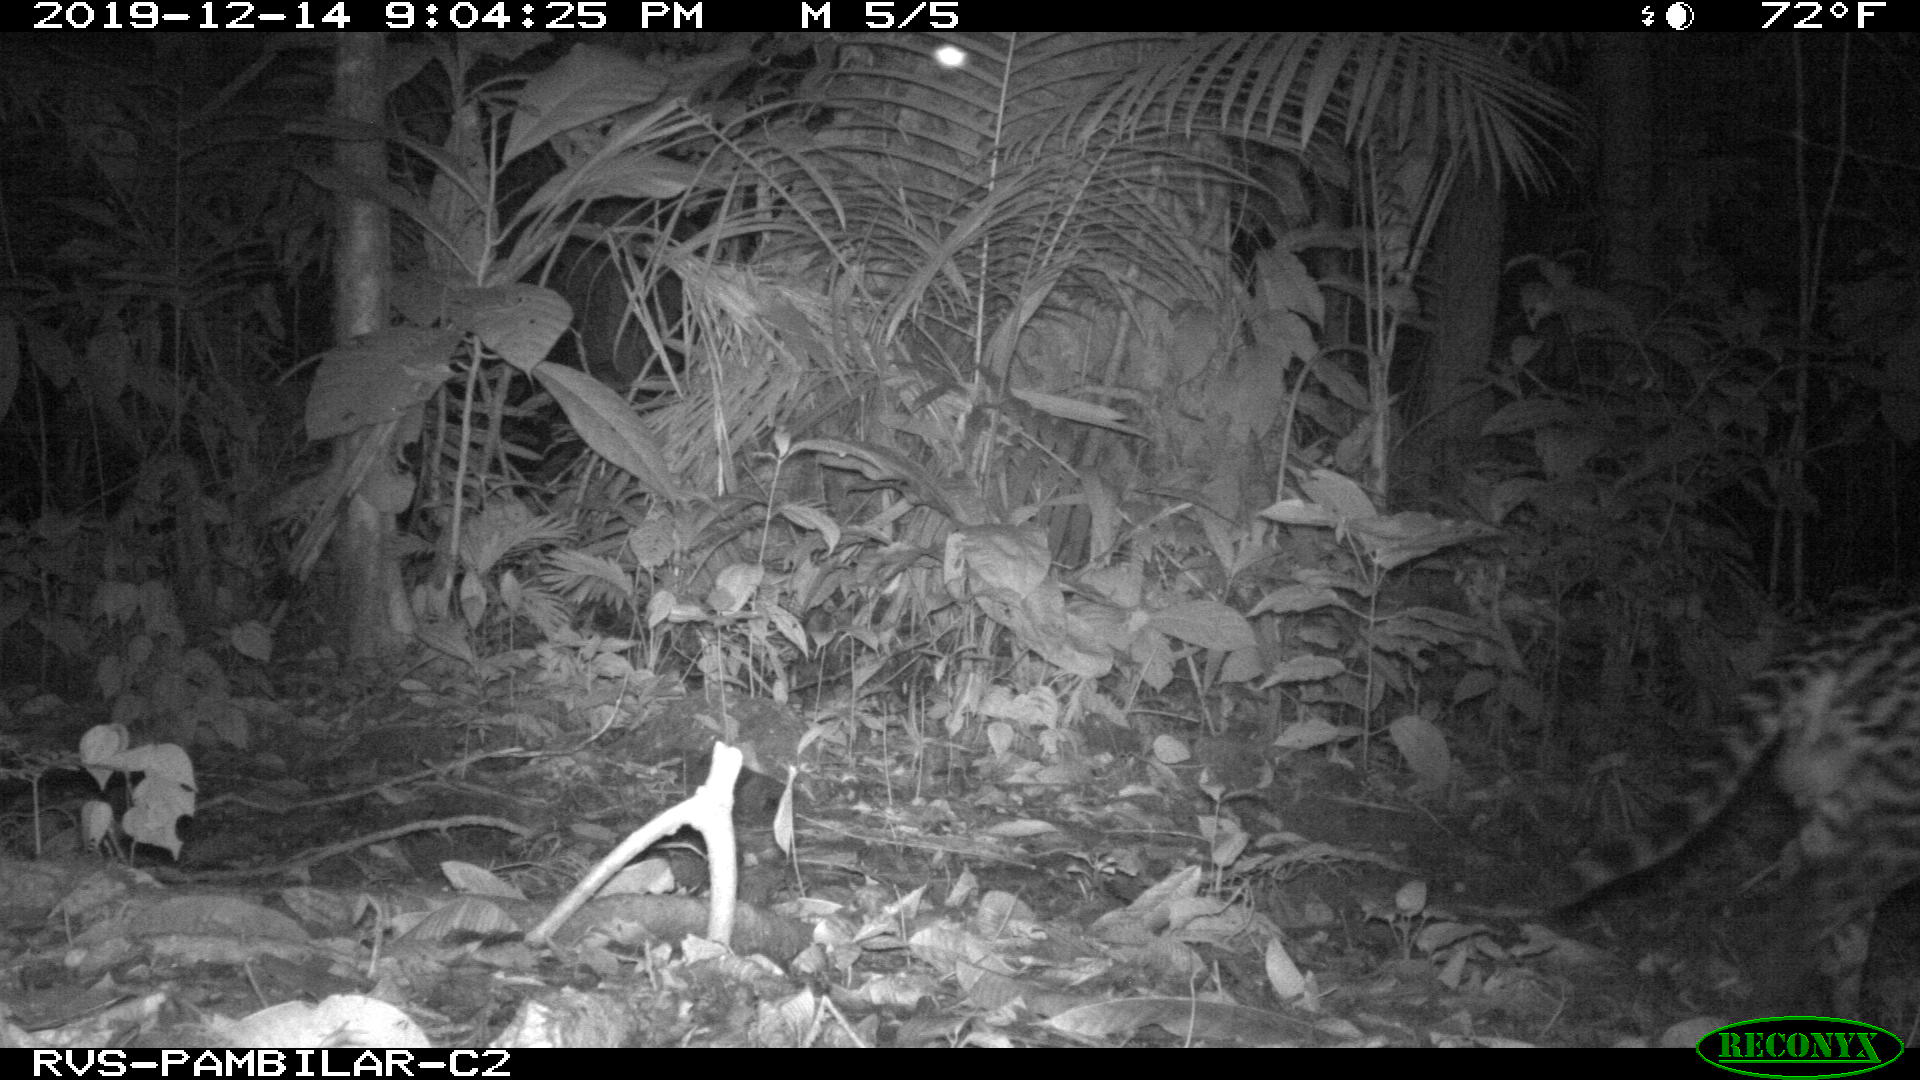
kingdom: Animalia
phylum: Chordata
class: Mammalia
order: Carnivora
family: Felidae
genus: Leopardus
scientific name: Leopardus pardalis
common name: Ocelot
